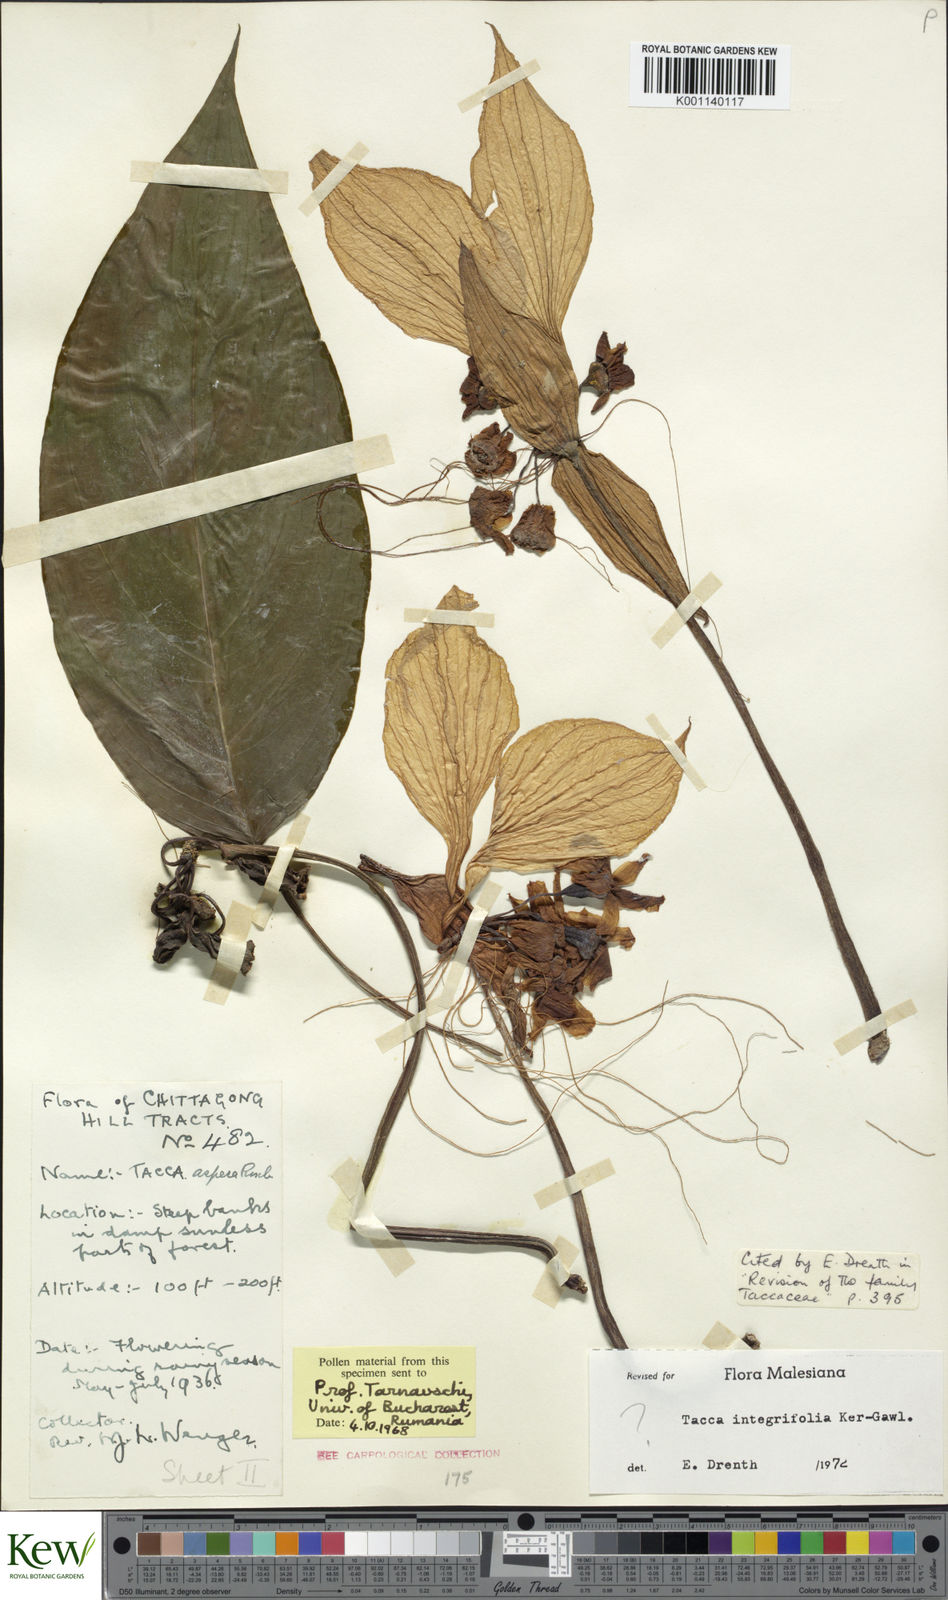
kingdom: Plantae
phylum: Tracheophyta
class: Liliopsida
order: Dioscoreales
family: Dioscoreaceae
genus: Tacca
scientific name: Tacca
